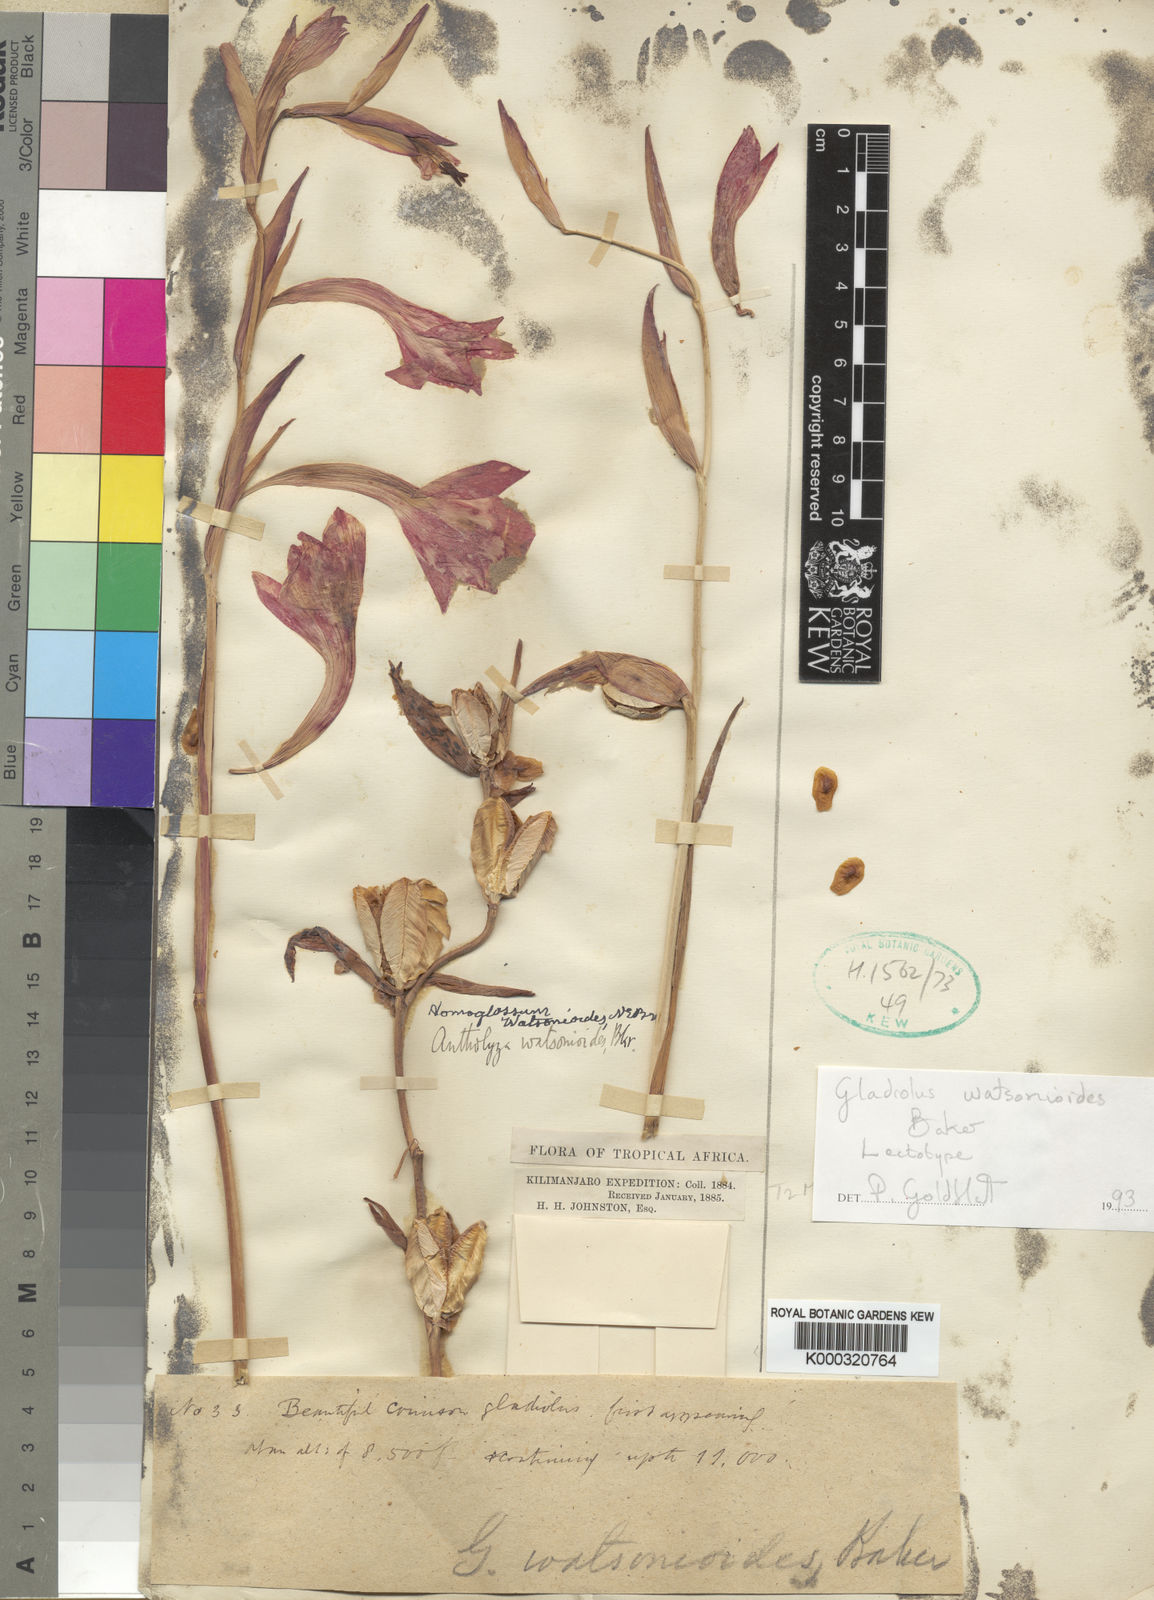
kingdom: Plantae
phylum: Tracheophyta
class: Liliopsida
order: Asparagales
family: Iridaceae
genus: Gladiolus
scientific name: Gladiolus watsonioides
